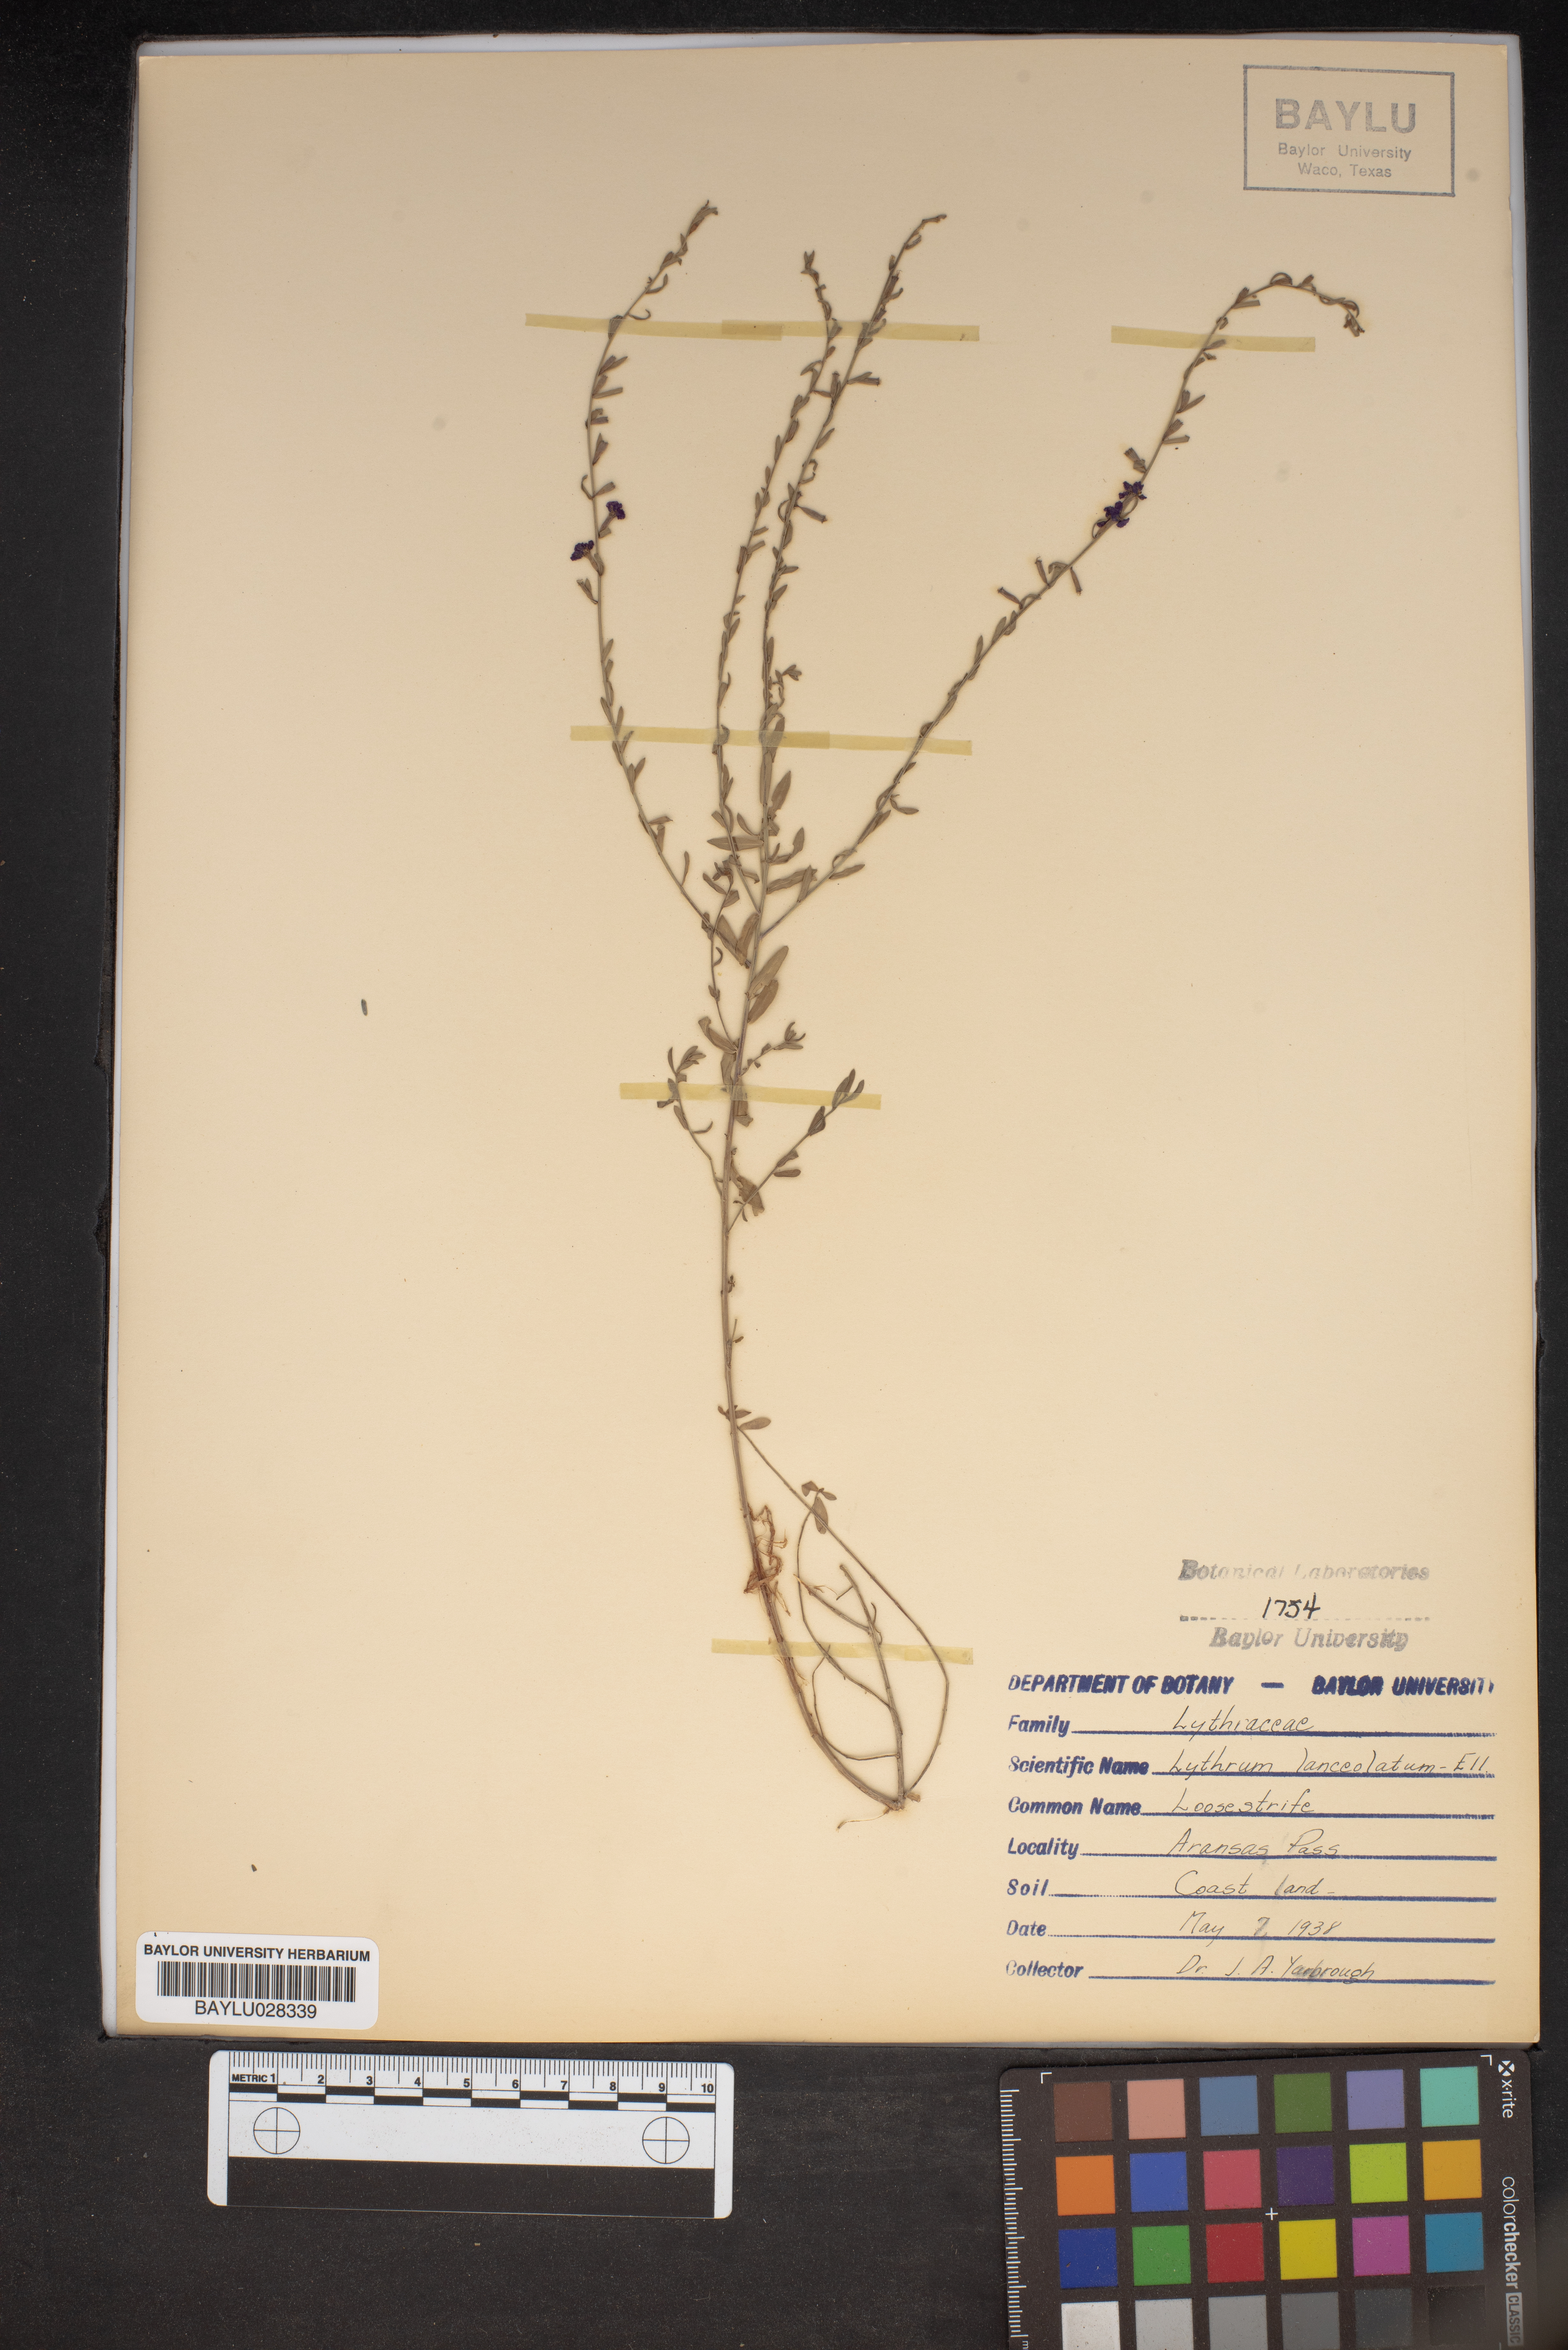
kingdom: Plantae
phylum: Tracheophyta
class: Magnoliopsida
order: Myrtales
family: Lythraceae
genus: Lythrum
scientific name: Lythrum alatum
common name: Winged loosestrife
